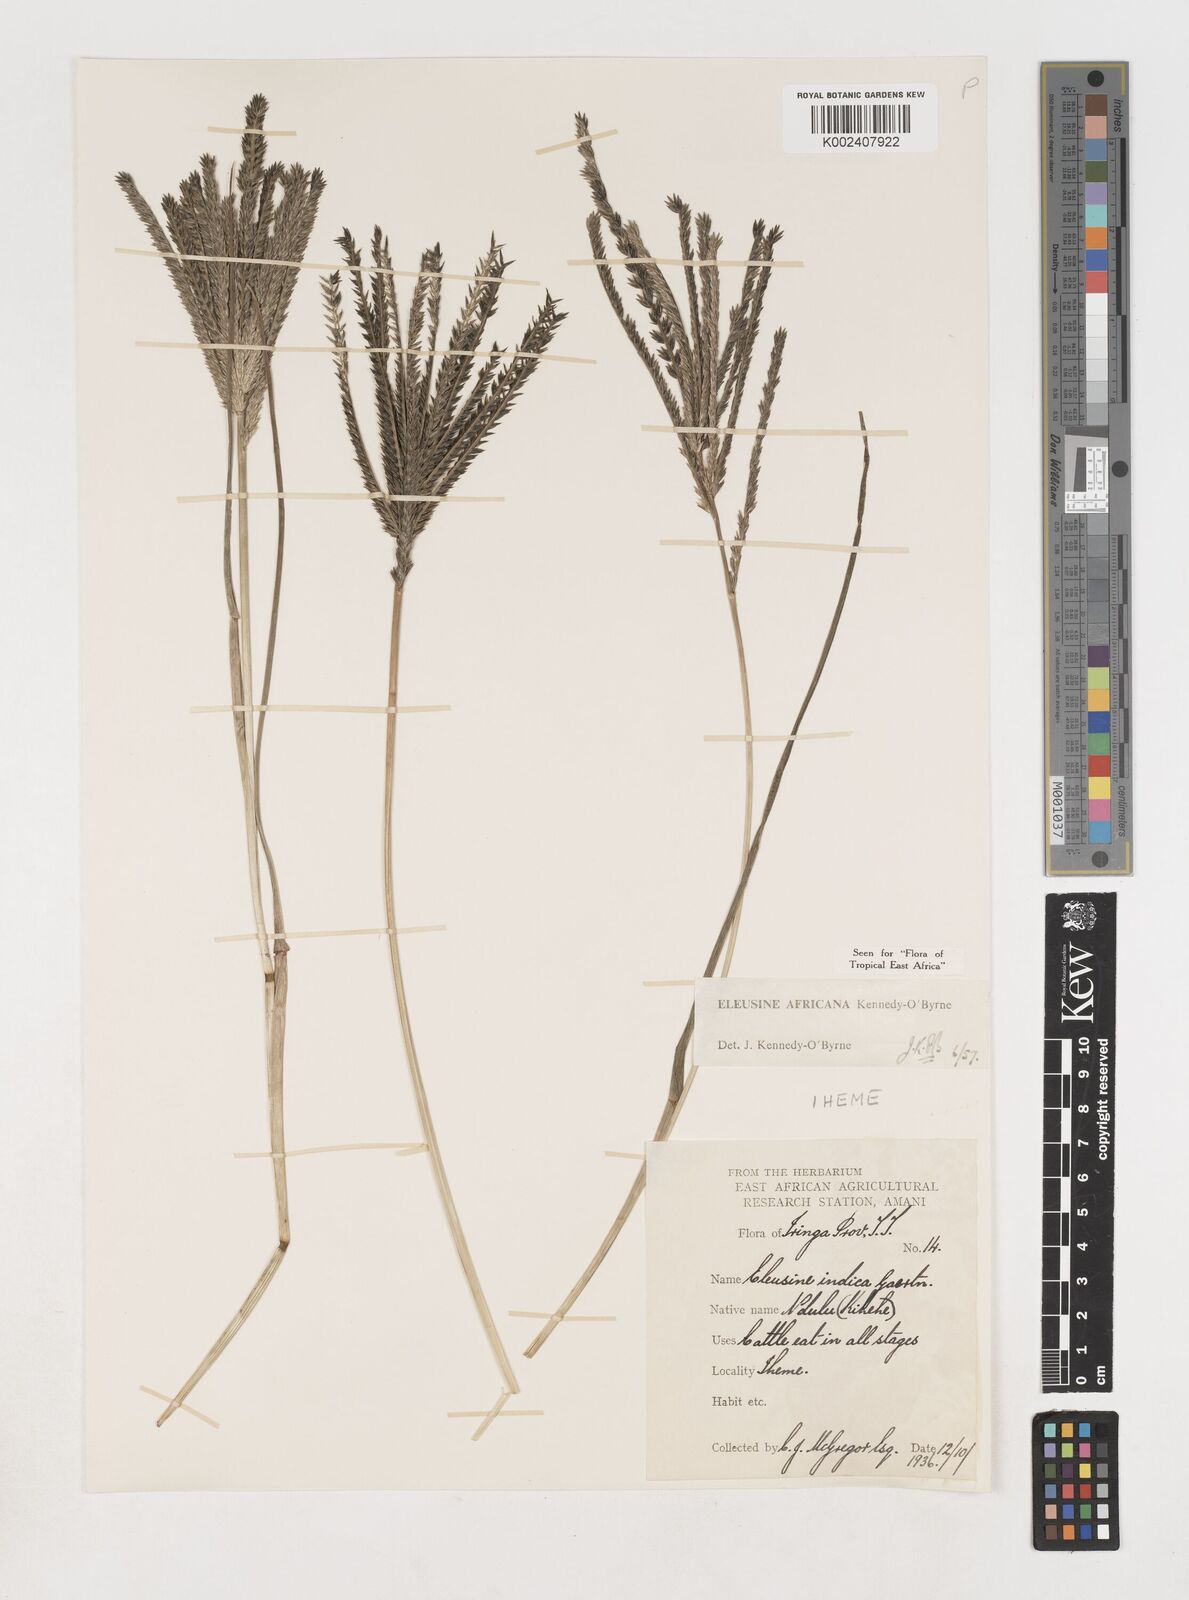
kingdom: Plantae
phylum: Tracheophyta
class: Liliopsida
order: Poales
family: Poaceae
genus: Eleusine
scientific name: Eleusine africana
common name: Wild african finger millet
